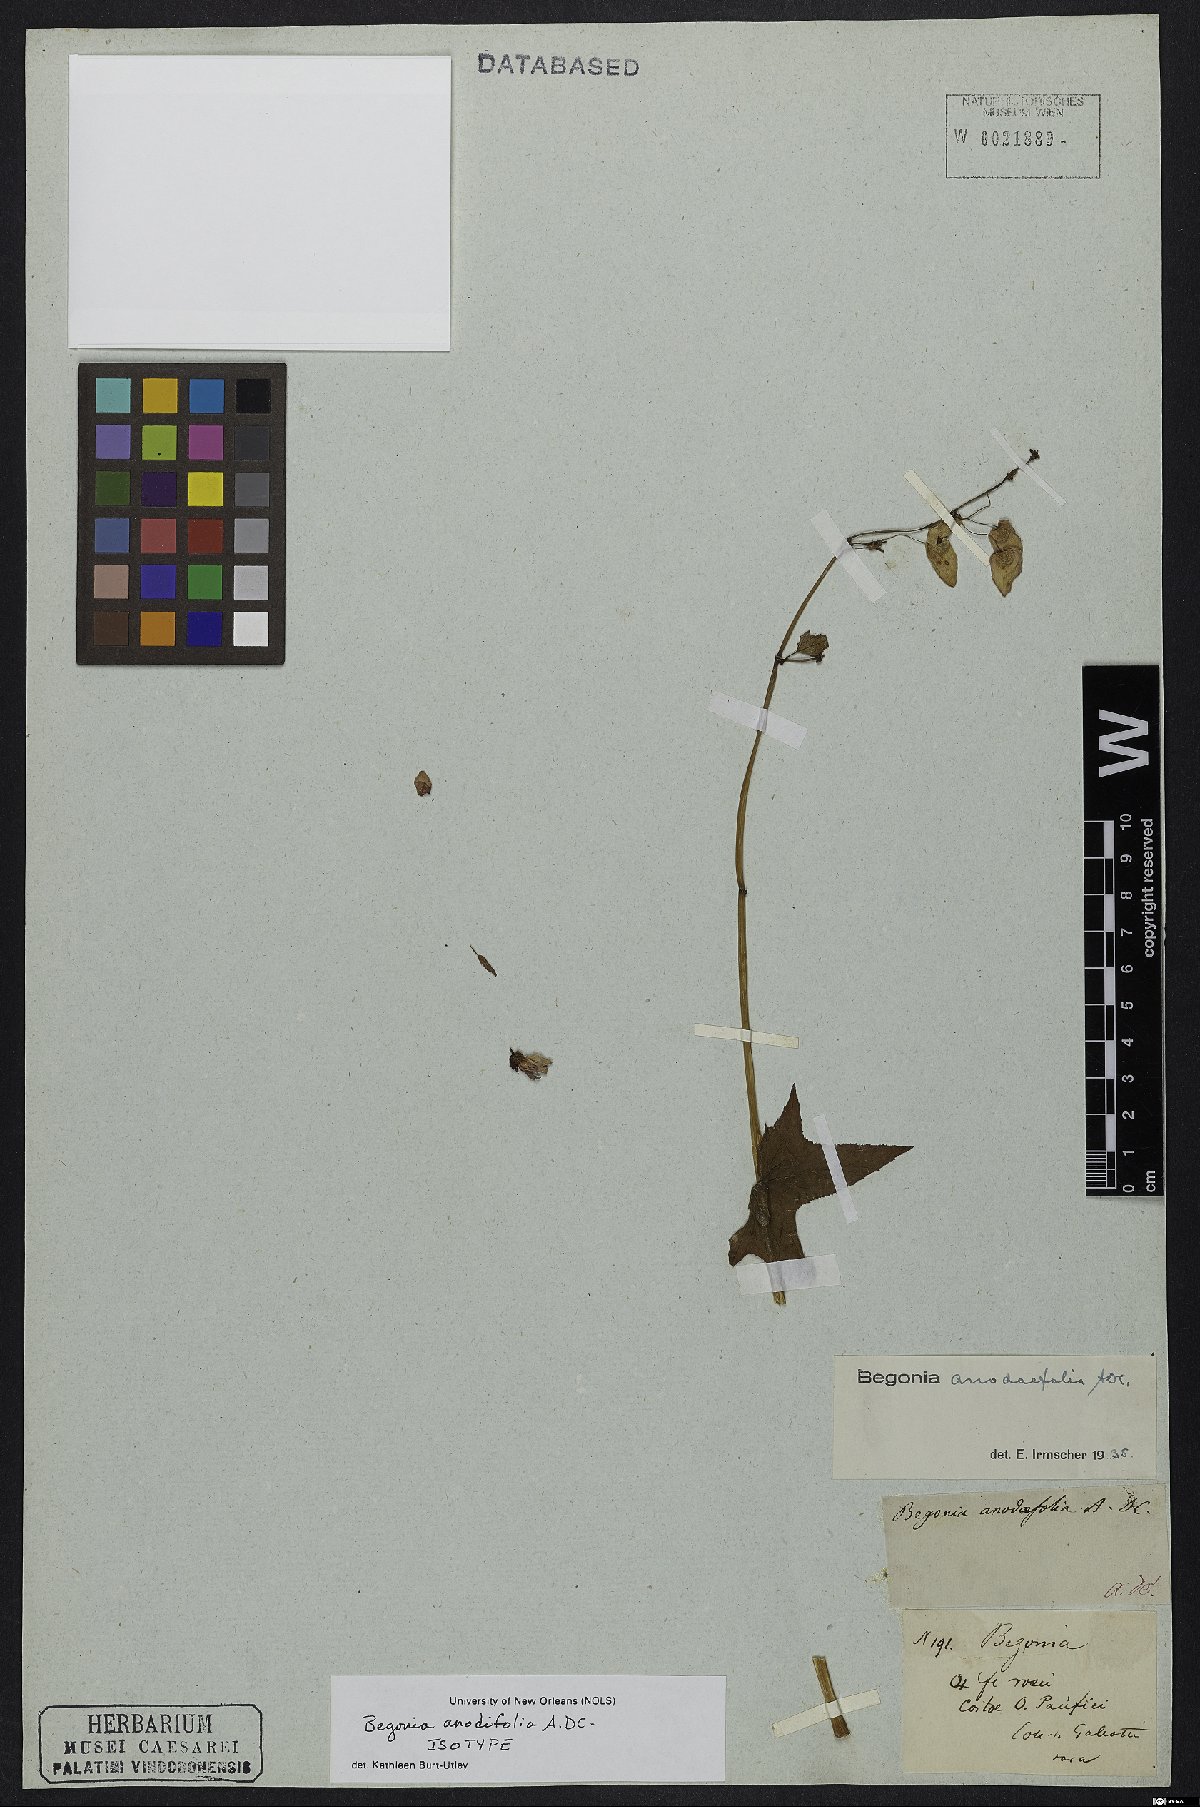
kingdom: Plantae
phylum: Tracheophyta
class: Magnoliopsida
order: Cucurbitales
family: Begoniaceae
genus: Begonia
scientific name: Begonia anodifolia
